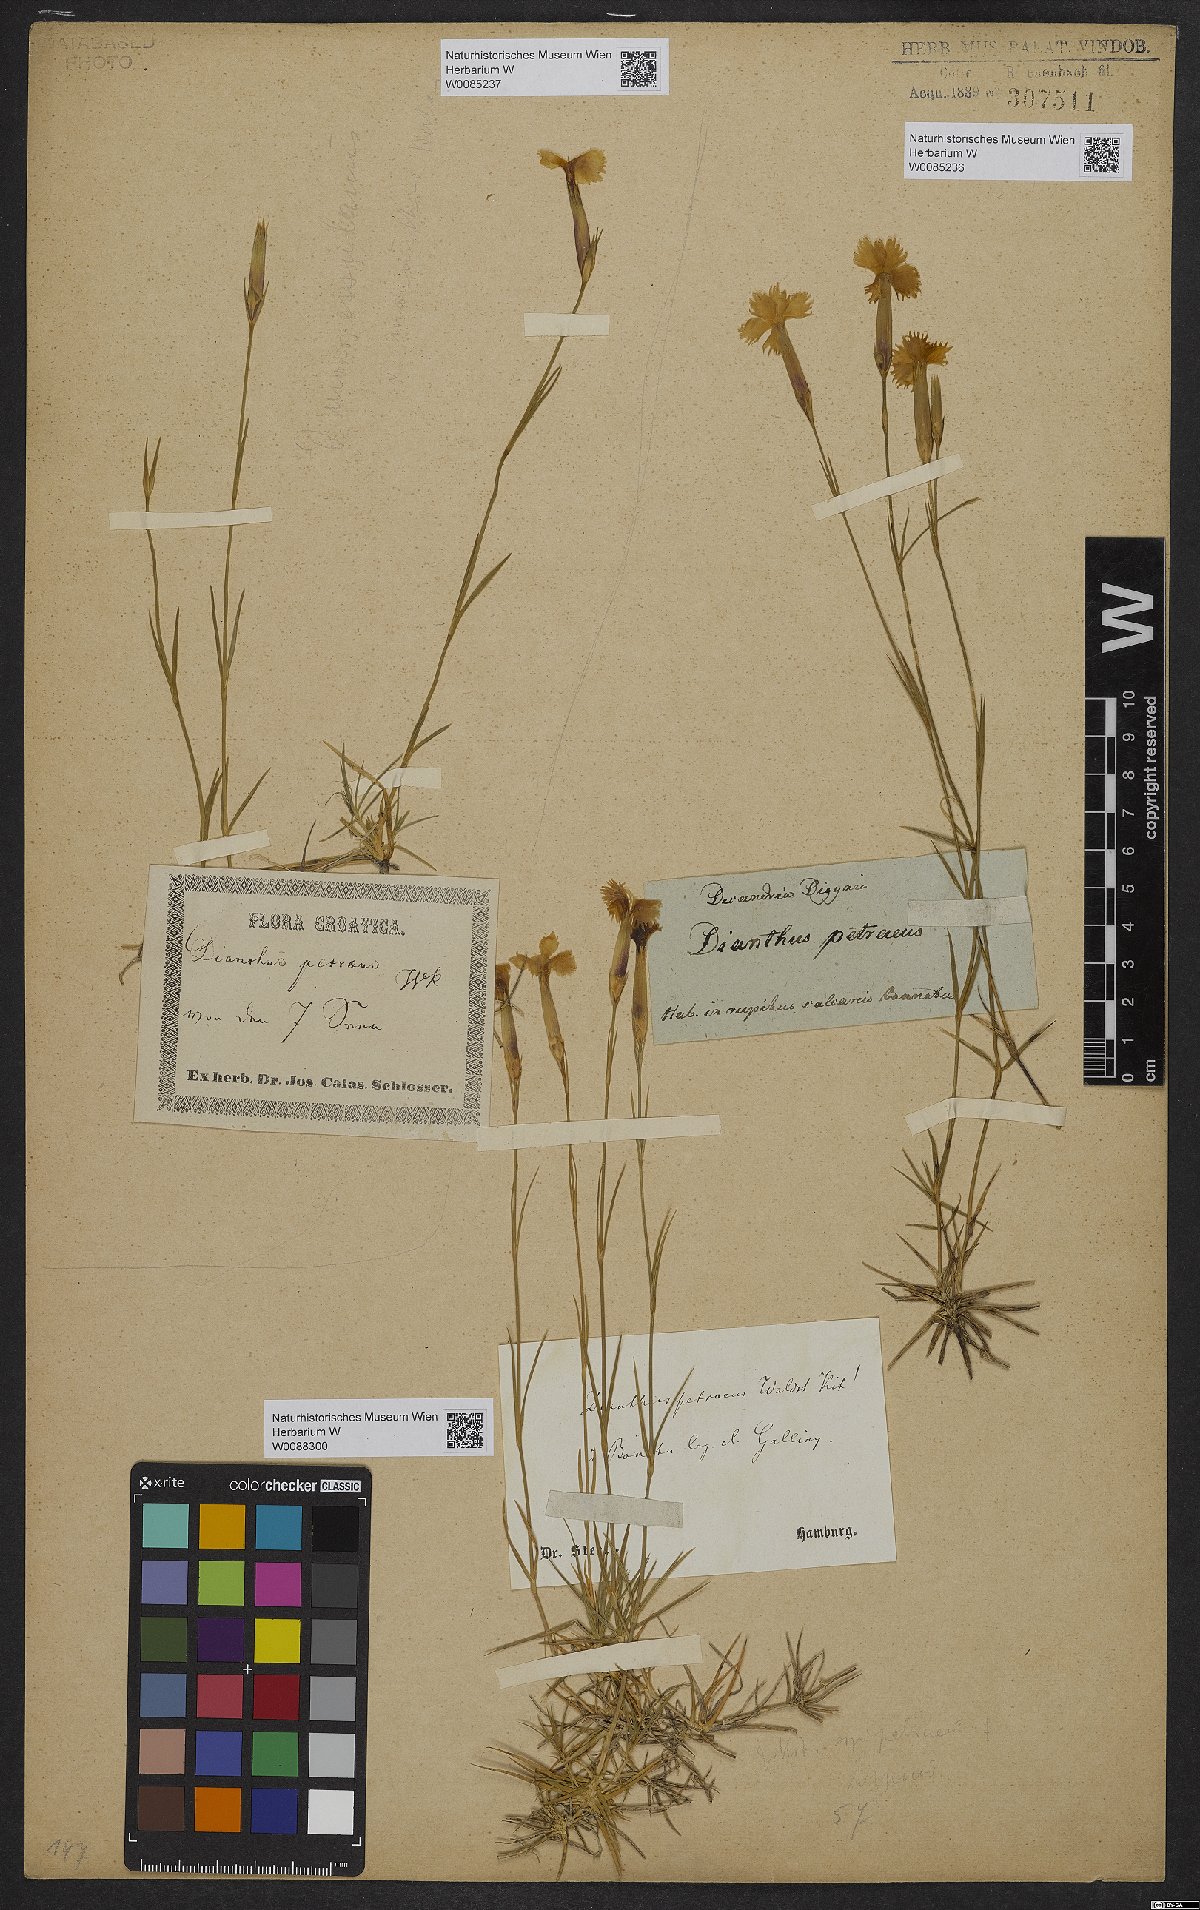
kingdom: Plantae
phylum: Tracheophyta
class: Magnoliopsida
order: Caryophyllales
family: Caryophyllaceae
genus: Dianthus
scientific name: Dianthus petraeus
